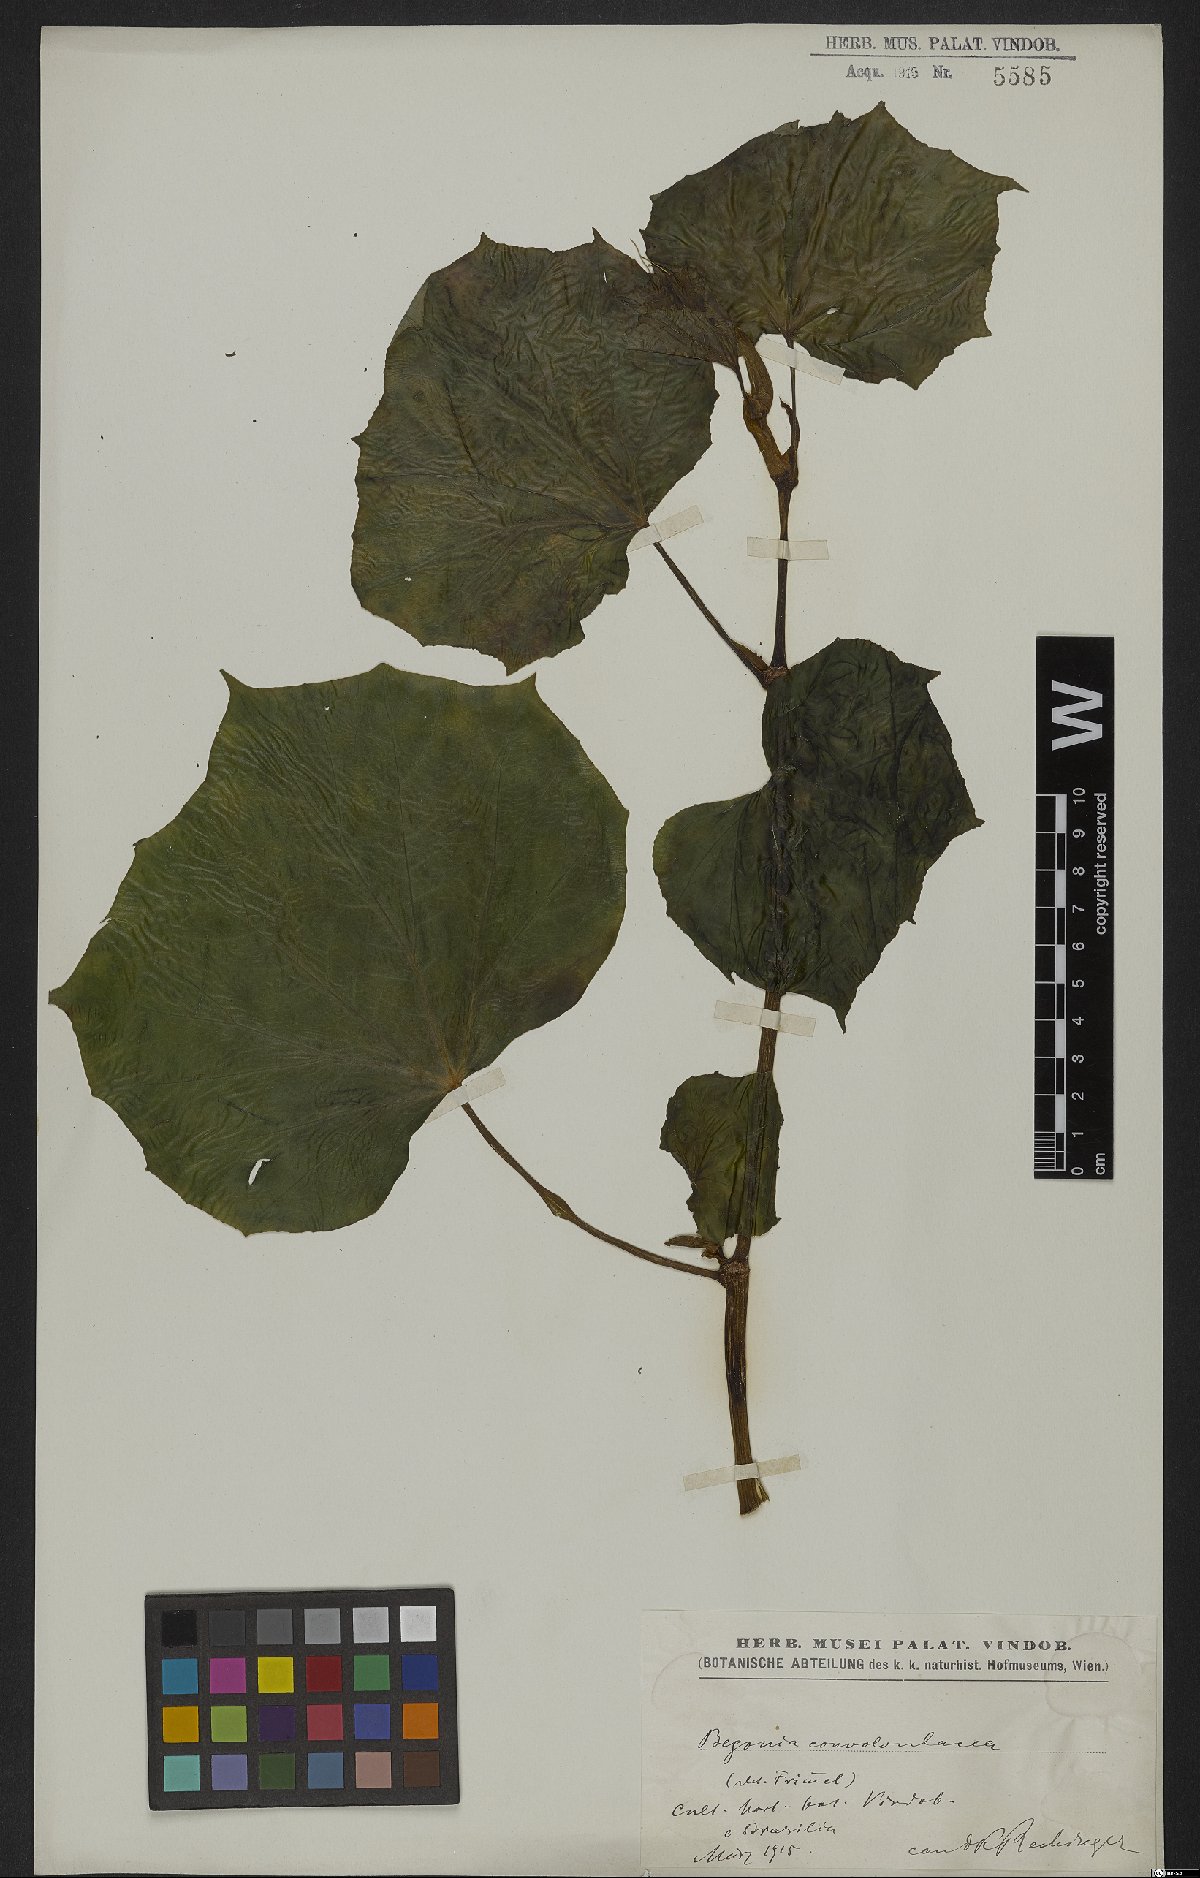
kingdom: Plantae
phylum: Tracheophyta
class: Magnoliopsida
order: Cucurbitales
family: Begoniaceae
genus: Begonia
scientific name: Begonia convolvulacea
